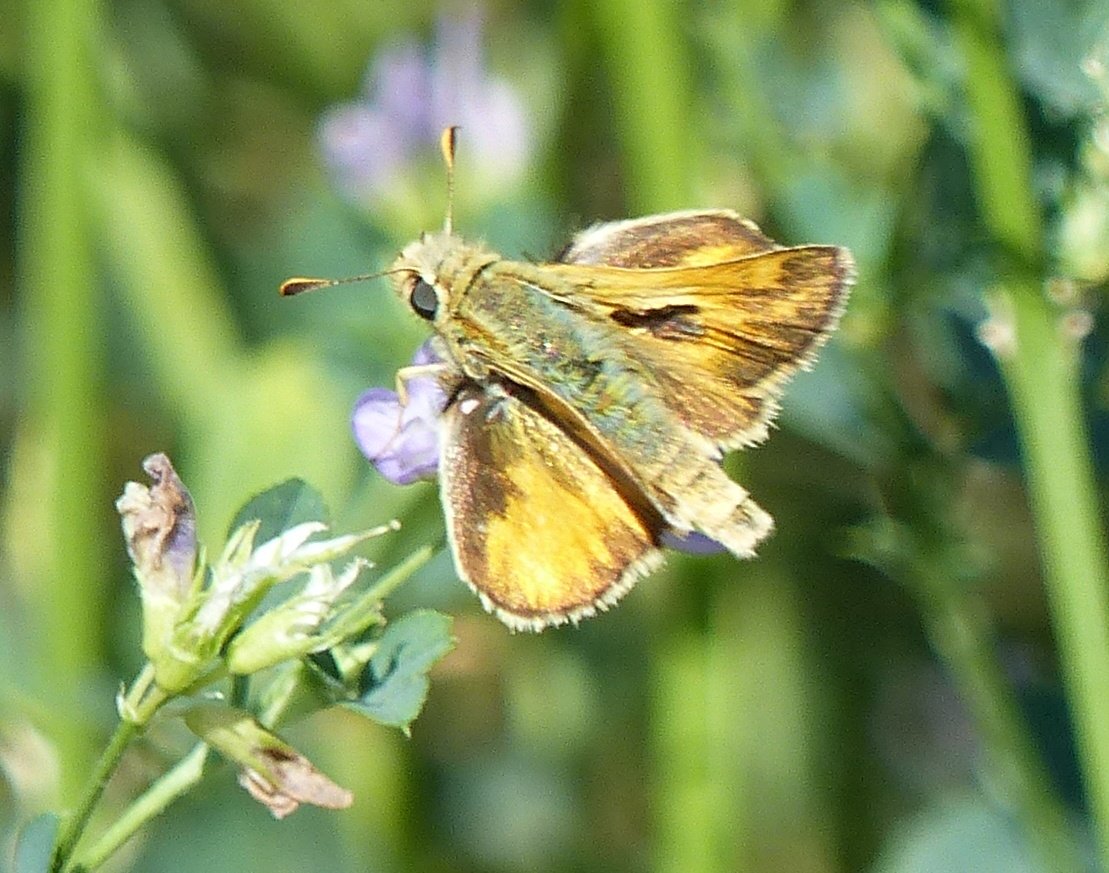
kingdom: Animalia
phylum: Arthropoda
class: Insecta
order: Lepidoptera
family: Hesperiidae
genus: Ochlodes
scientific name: Ochlodes sylvanoides
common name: Woodland Skipper
